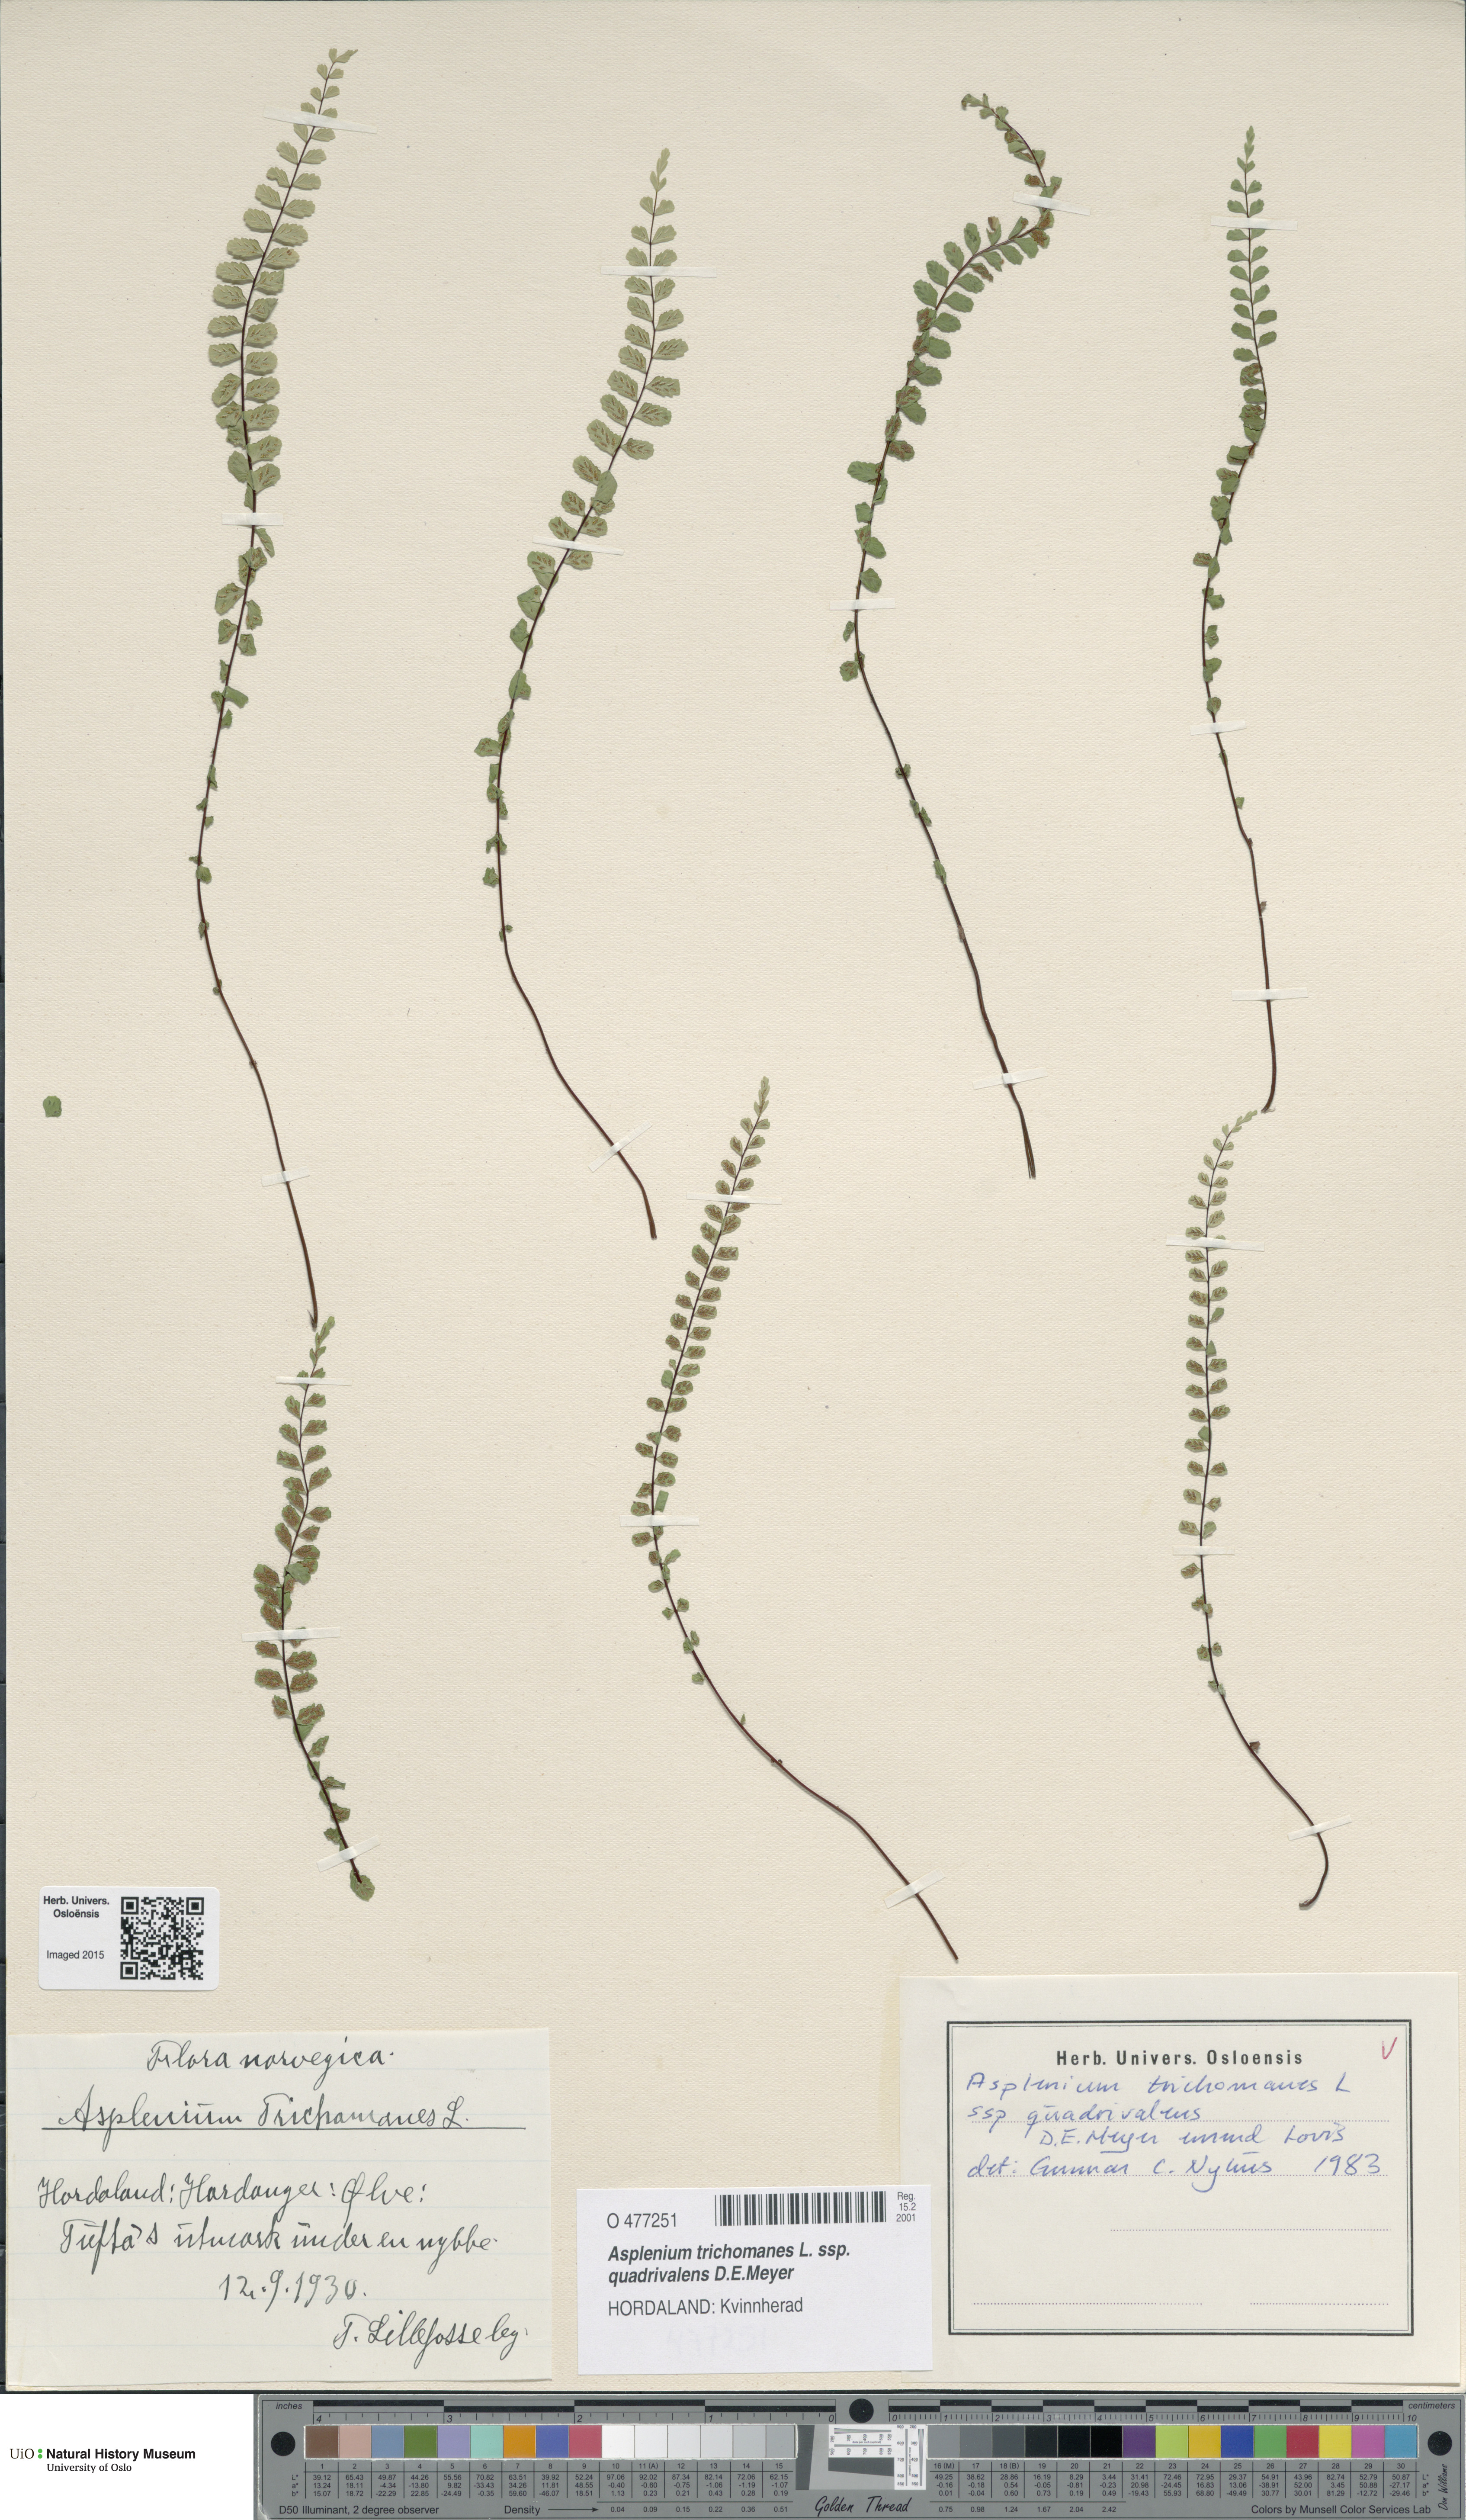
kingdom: Plantae
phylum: Tracheophyta
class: Polypodiopsida
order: Polypodiales
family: Aspleniaceae
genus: Asplenium
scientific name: Asplenium quadrivalens
